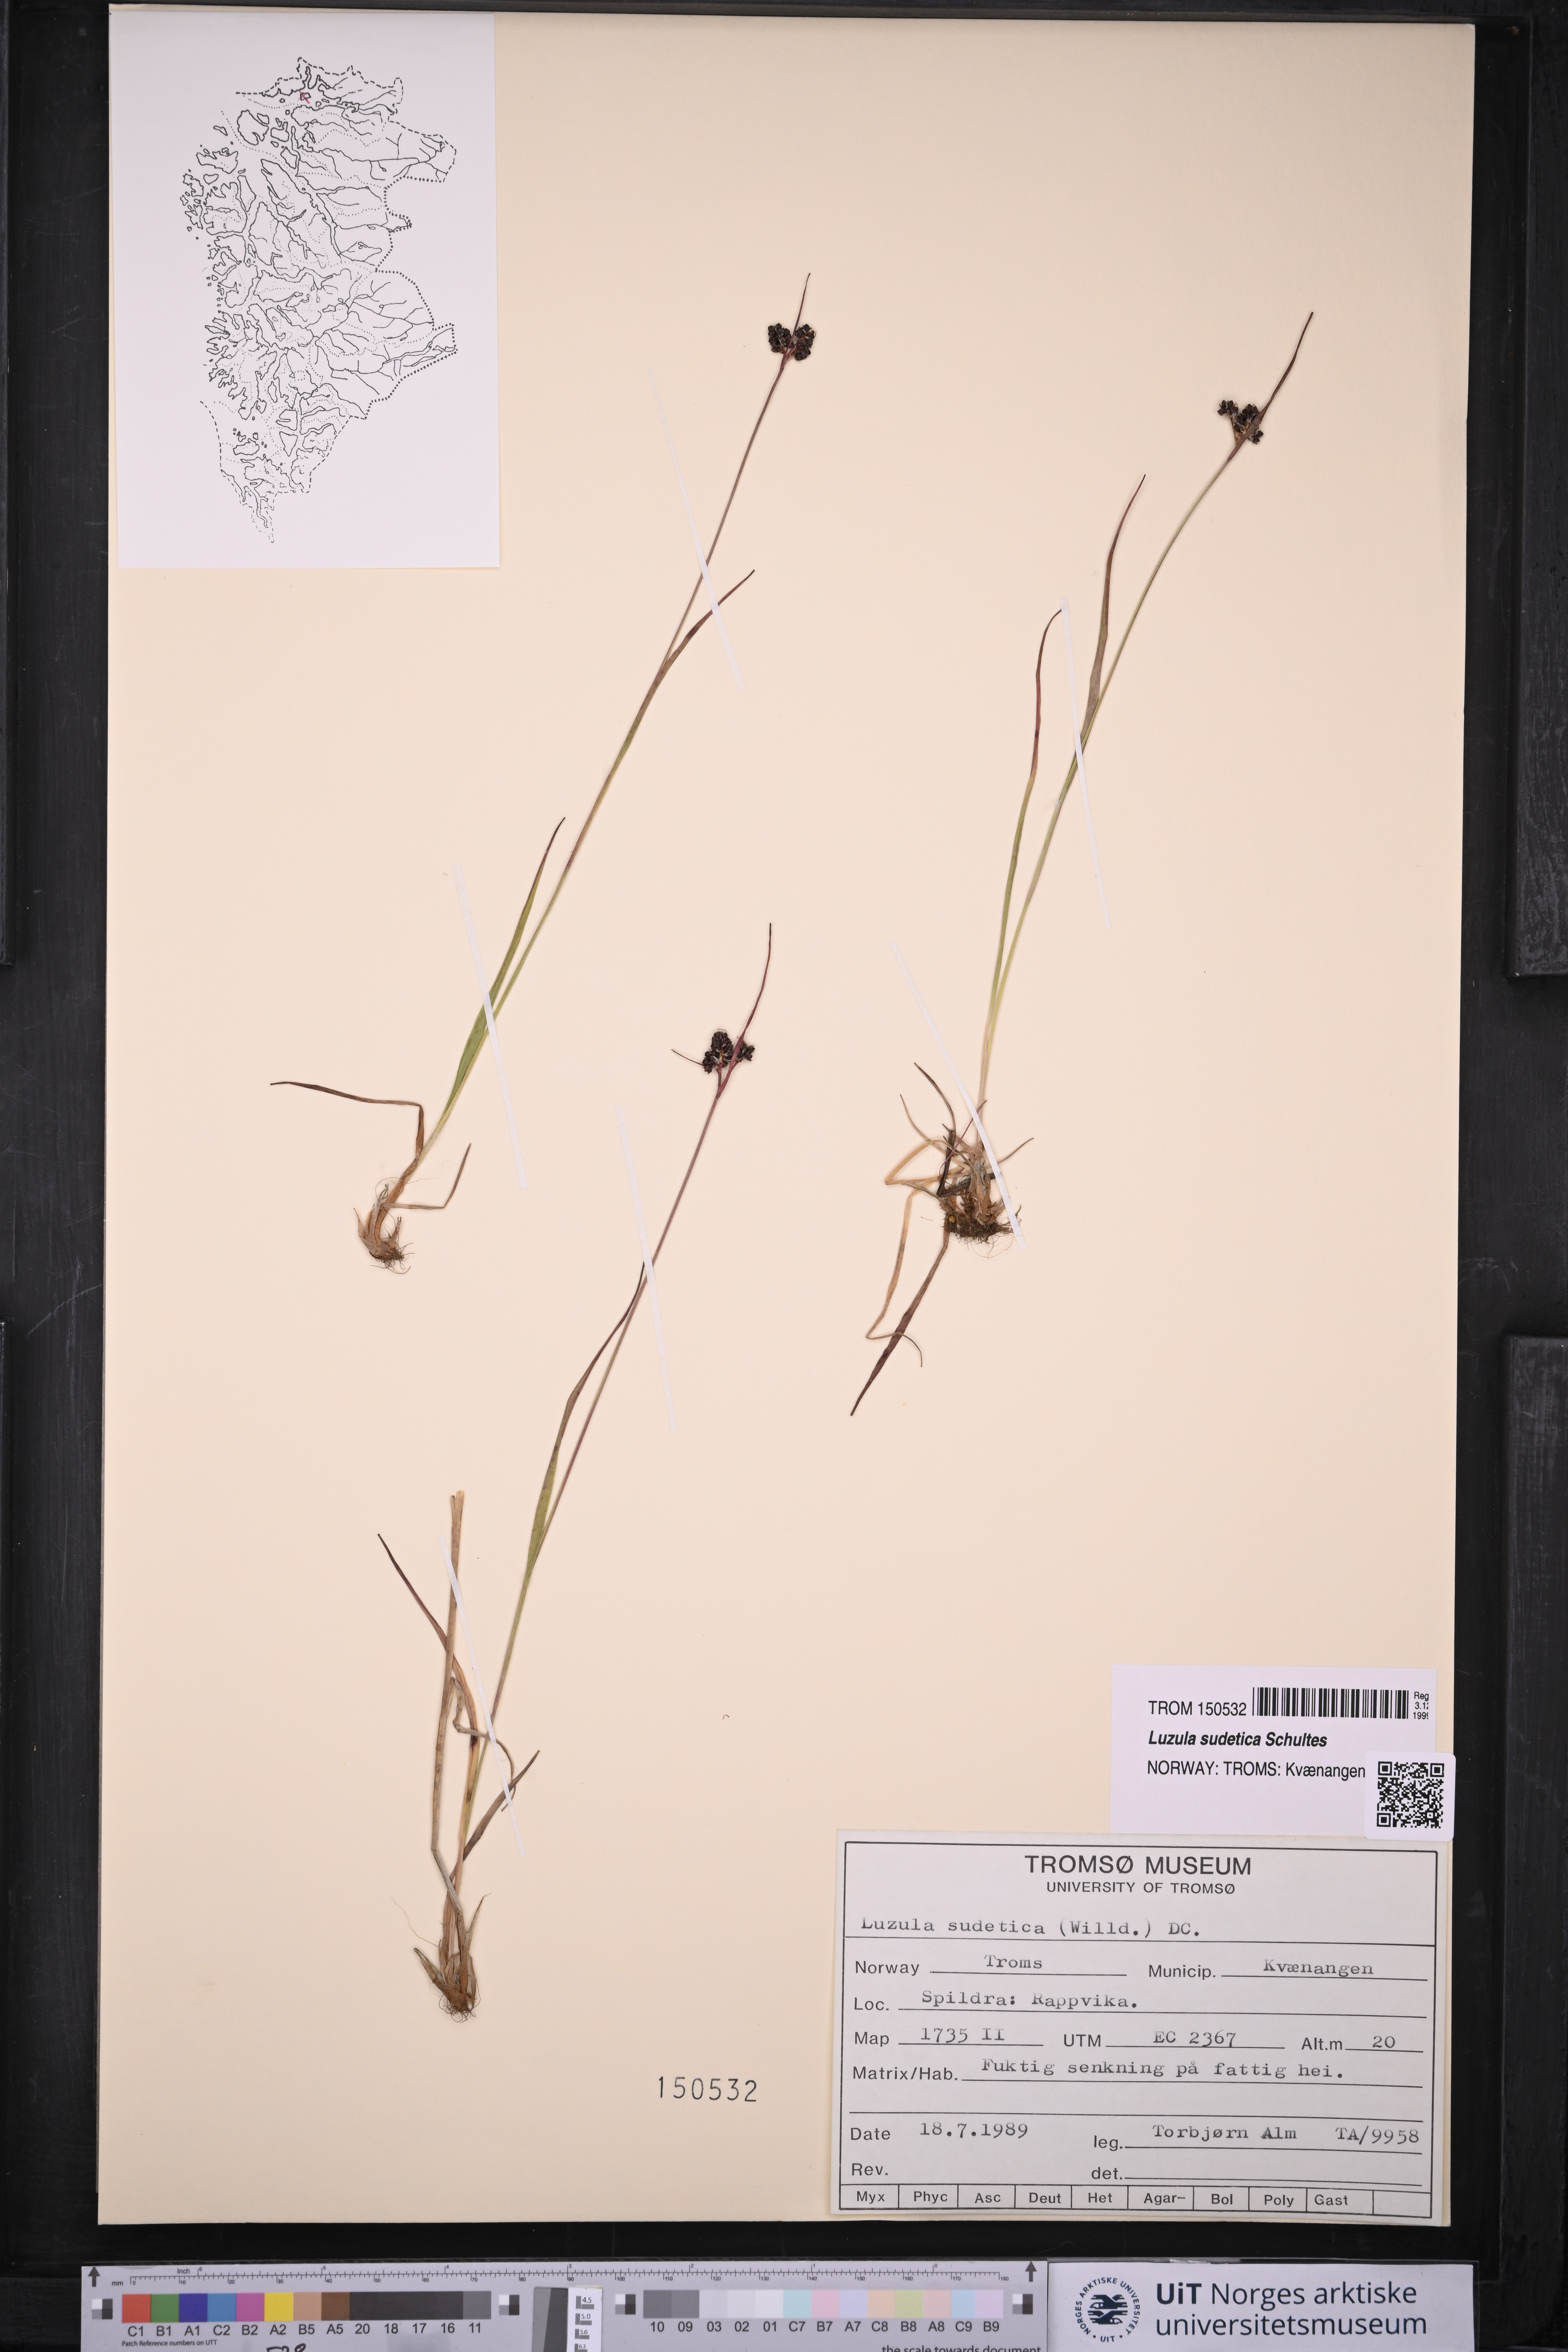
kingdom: Plantae
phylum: Tracheophyta
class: Liliopsida
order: Poales
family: Juncaceae
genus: Luzula
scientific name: Luzula sudetica
